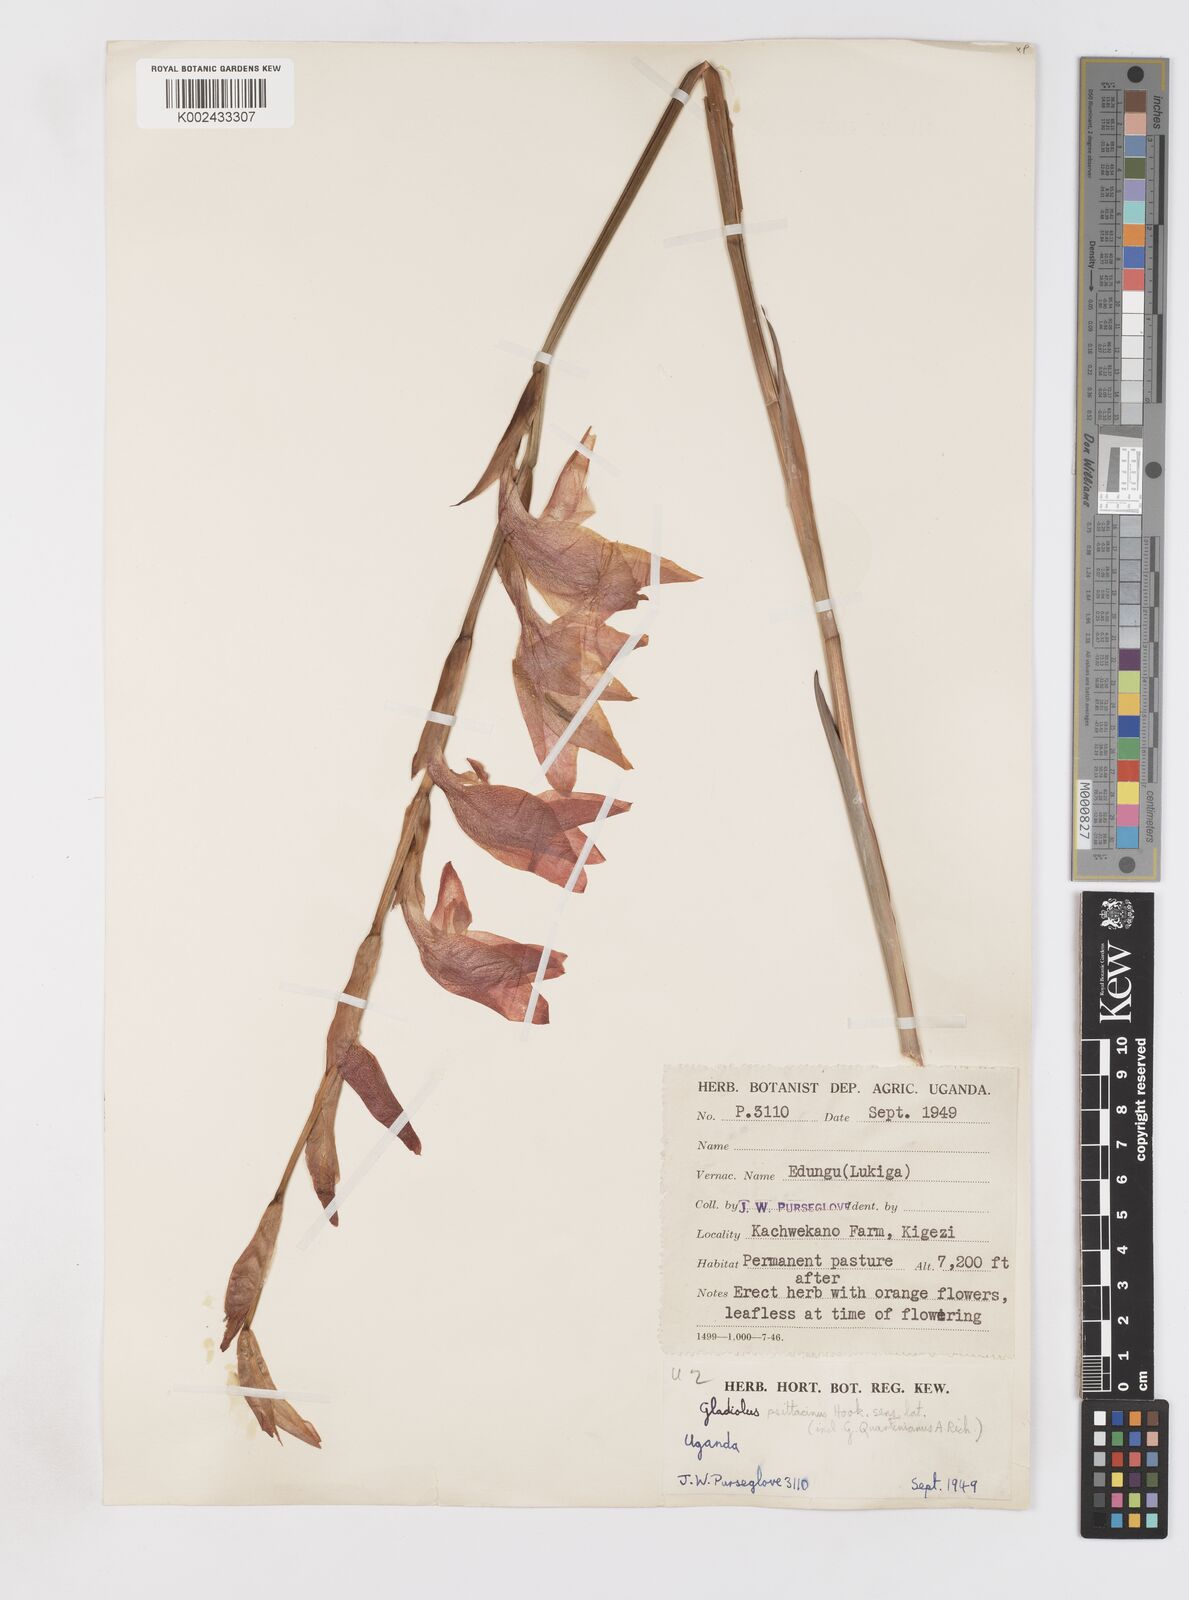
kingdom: Plantae
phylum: Tracheophyta
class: Liliopsida
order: Asparagales
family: Iridaceae
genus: Gladiolus
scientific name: Gladiolus dalenii
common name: Cornflag
